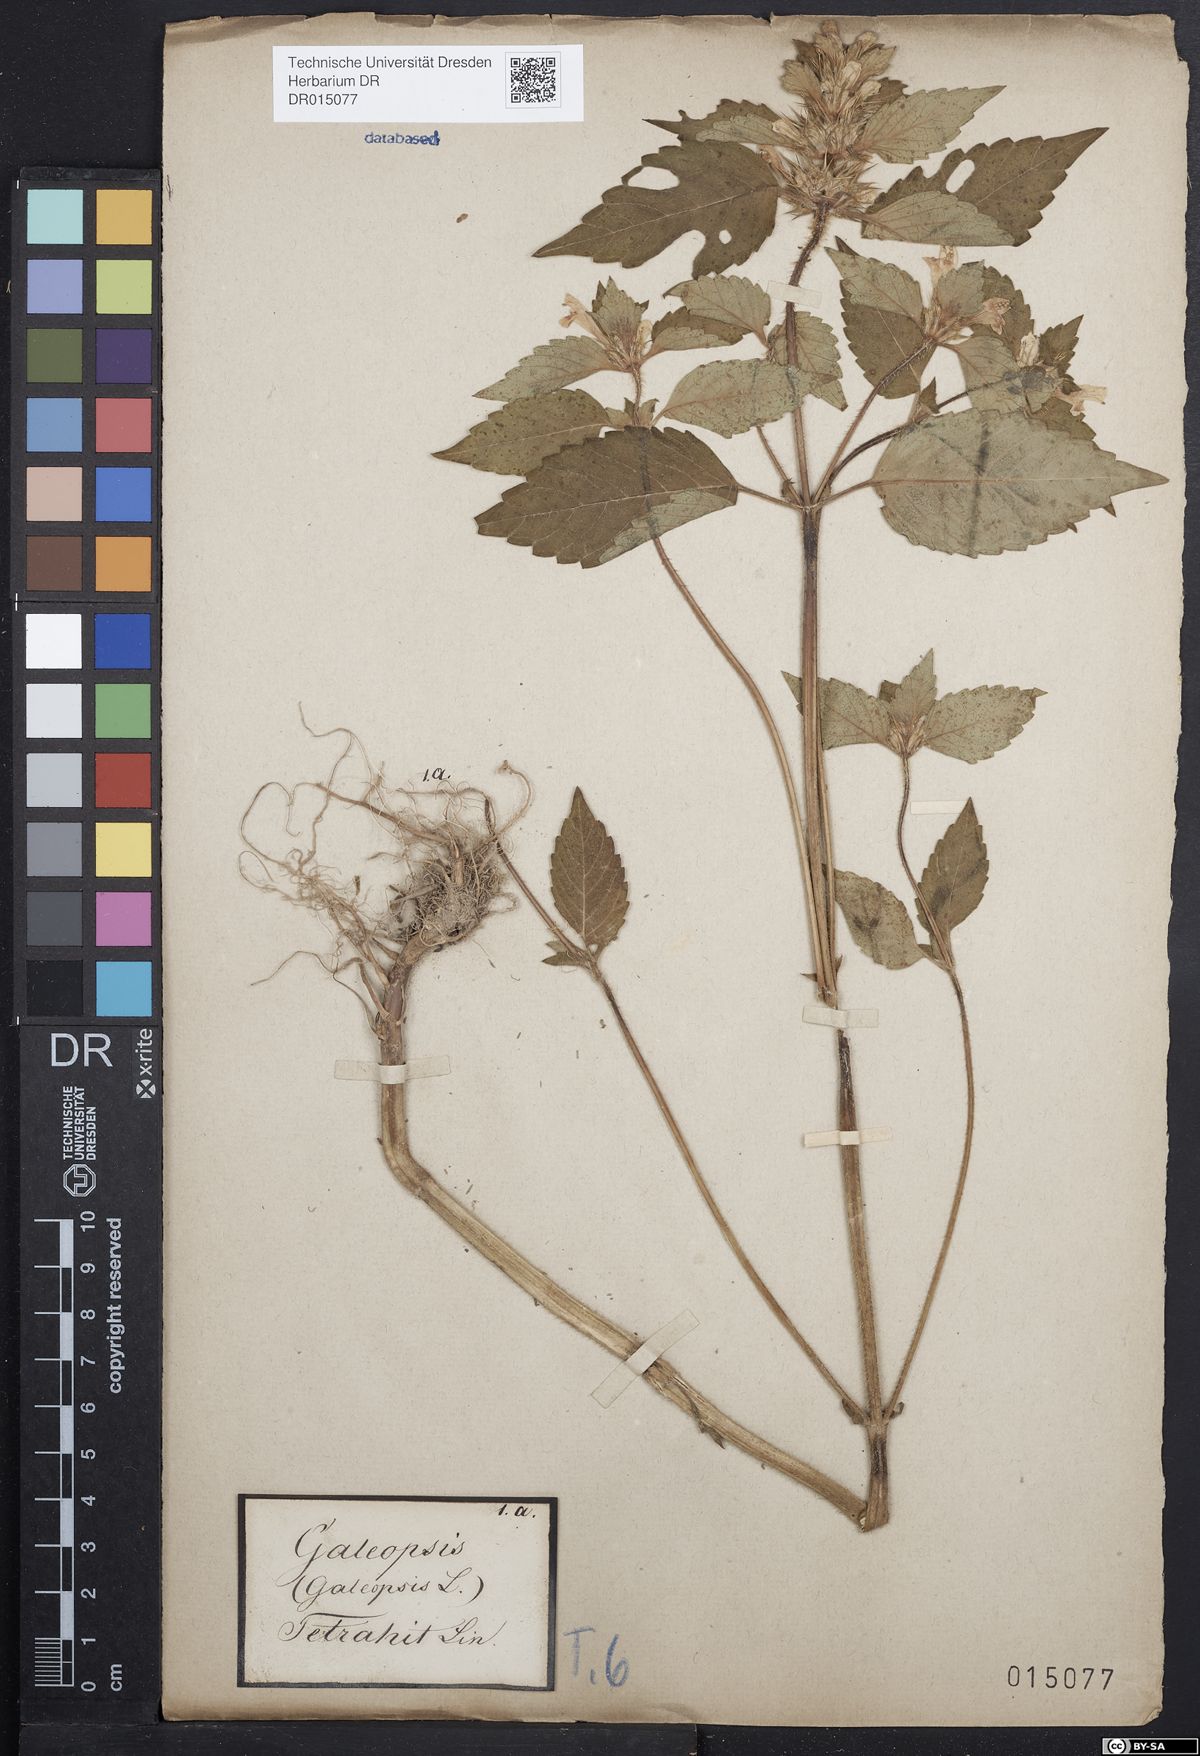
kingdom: Plantae
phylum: Tracheophyta
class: Magnoliopsida
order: Lamiales
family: Lamiaceae
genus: Galeopsis
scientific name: Galeopsis tetrahit
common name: Common hemp-nettle
